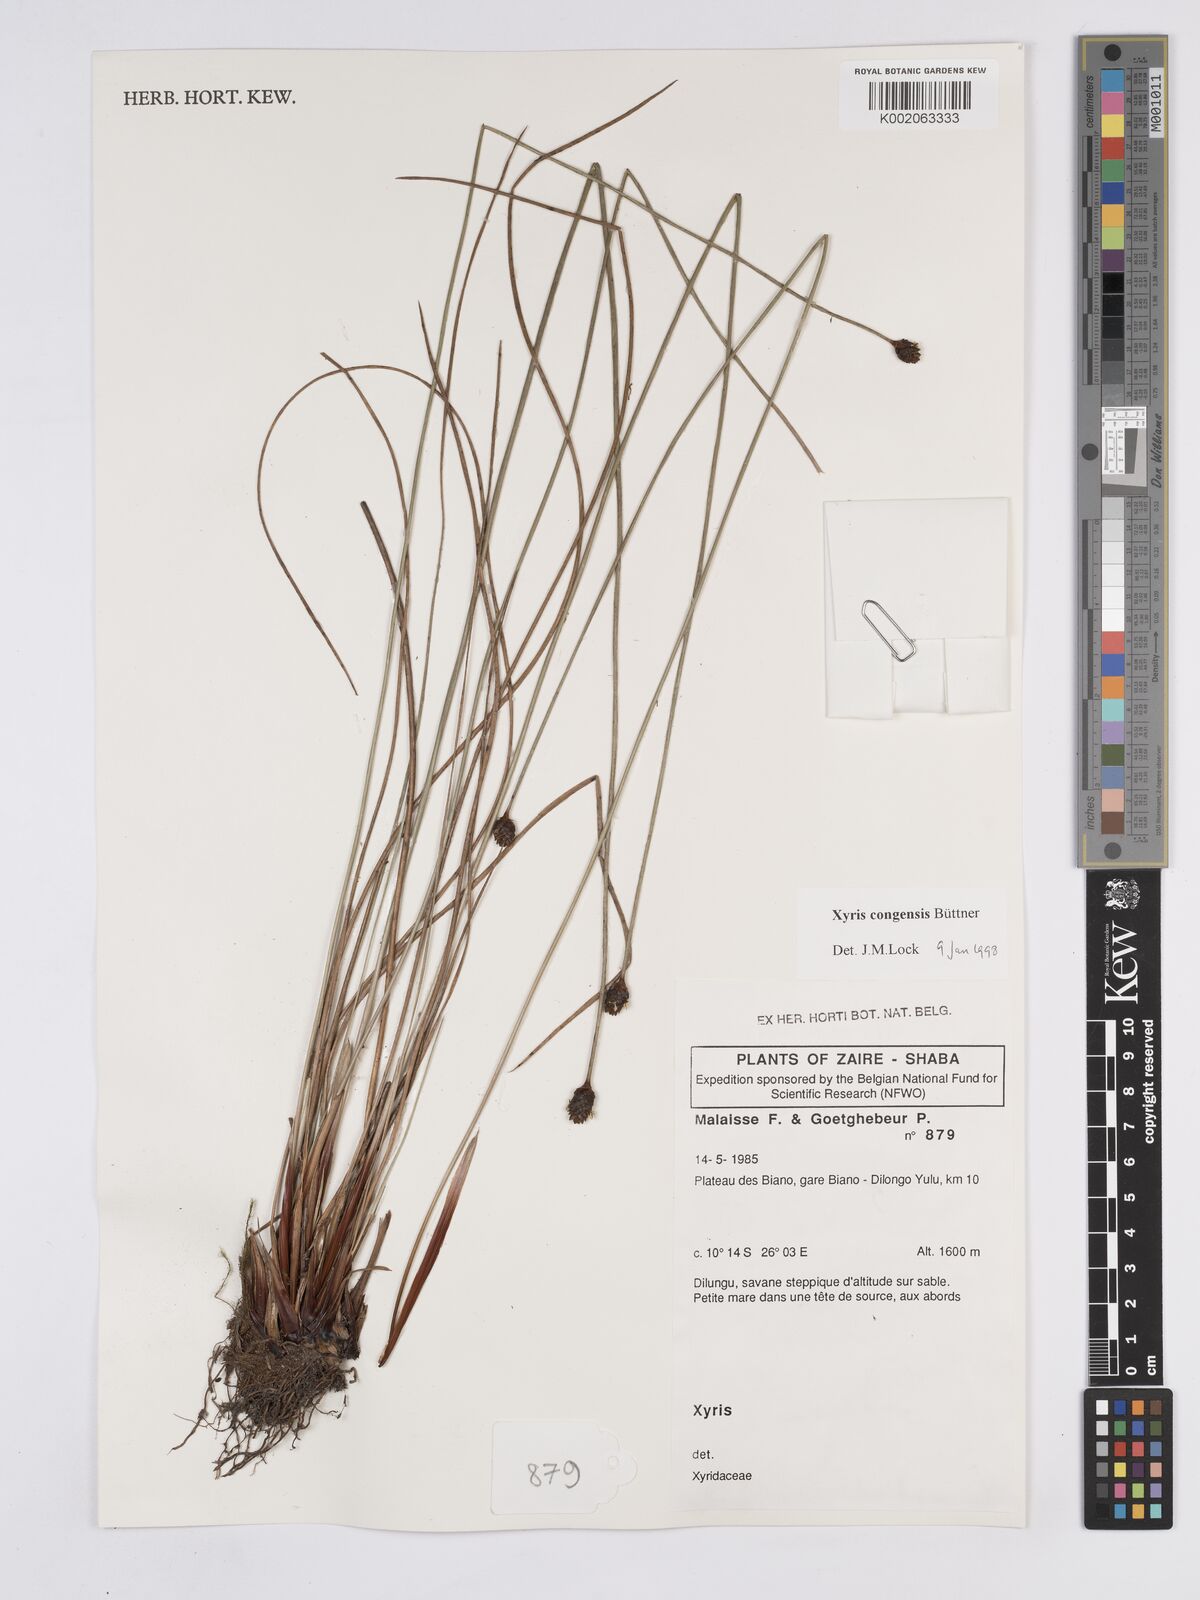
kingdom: Plantae
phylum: Tracheophyta
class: Liliopsida
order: Poales
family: Xyridaceae
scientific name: Xyridaceae
